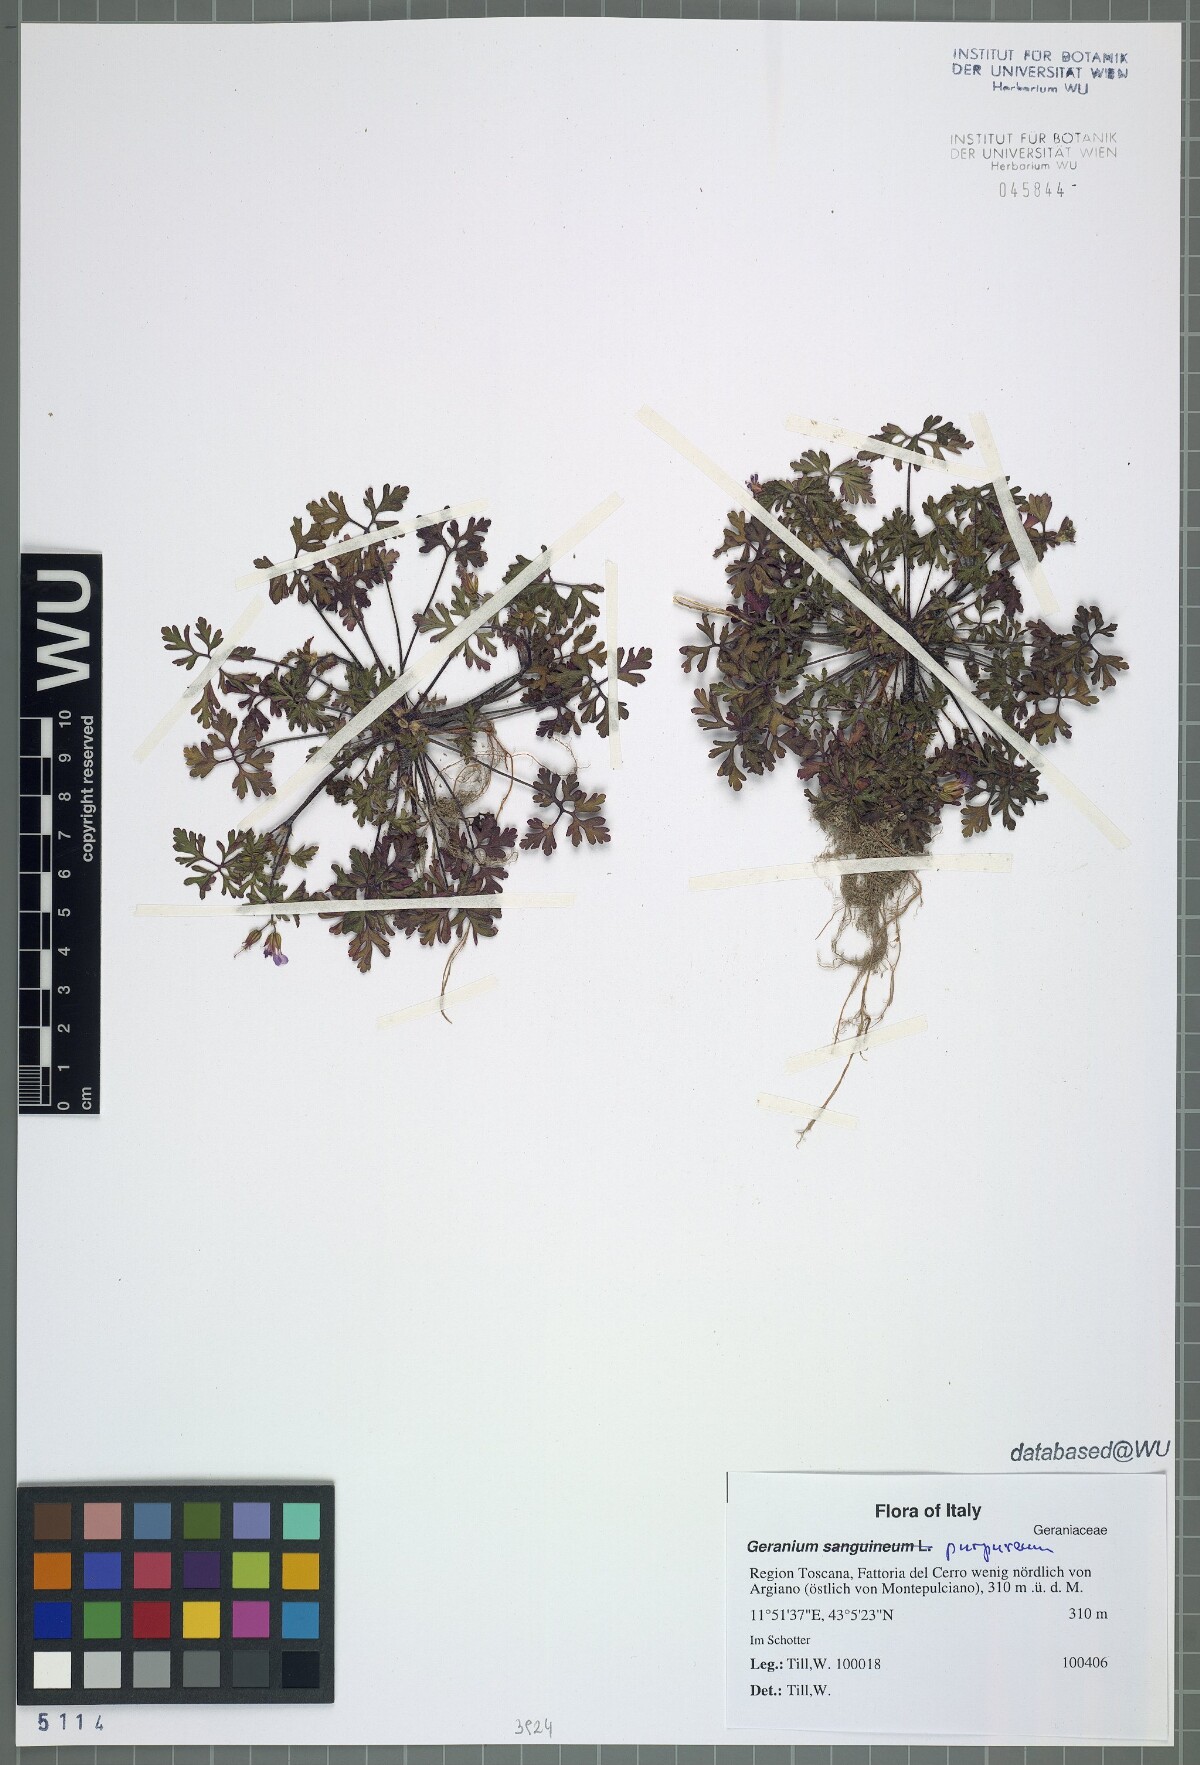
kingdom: Plantae
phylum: Tracheophyta
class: Magnoliopsida
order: Geraniales
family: Geraniaceae
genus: Geranium
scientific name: Geranium purpureum
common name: Little-robin
